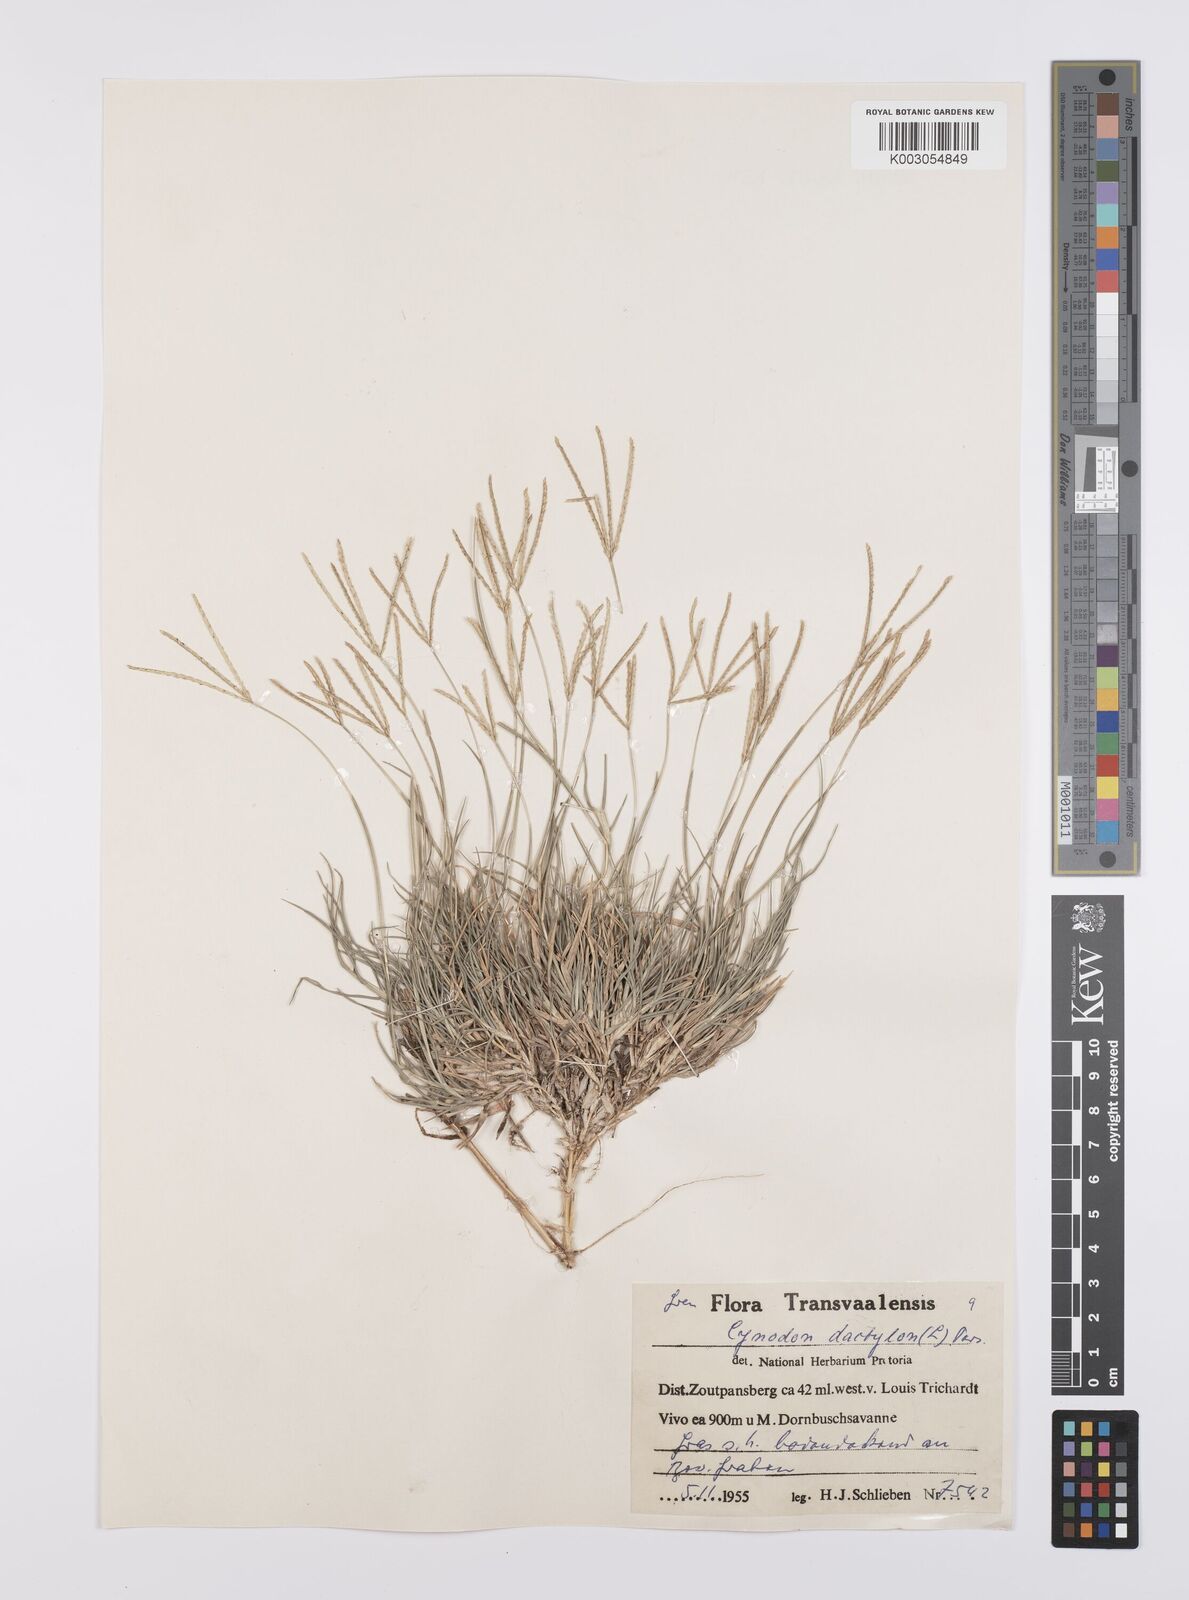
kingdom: Plantae
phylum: Tracheophyta
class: Liliopsida
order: Poales
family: Poaceae
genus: Cynodon
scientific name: Cynodon dactylon
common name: Bermuda grass
